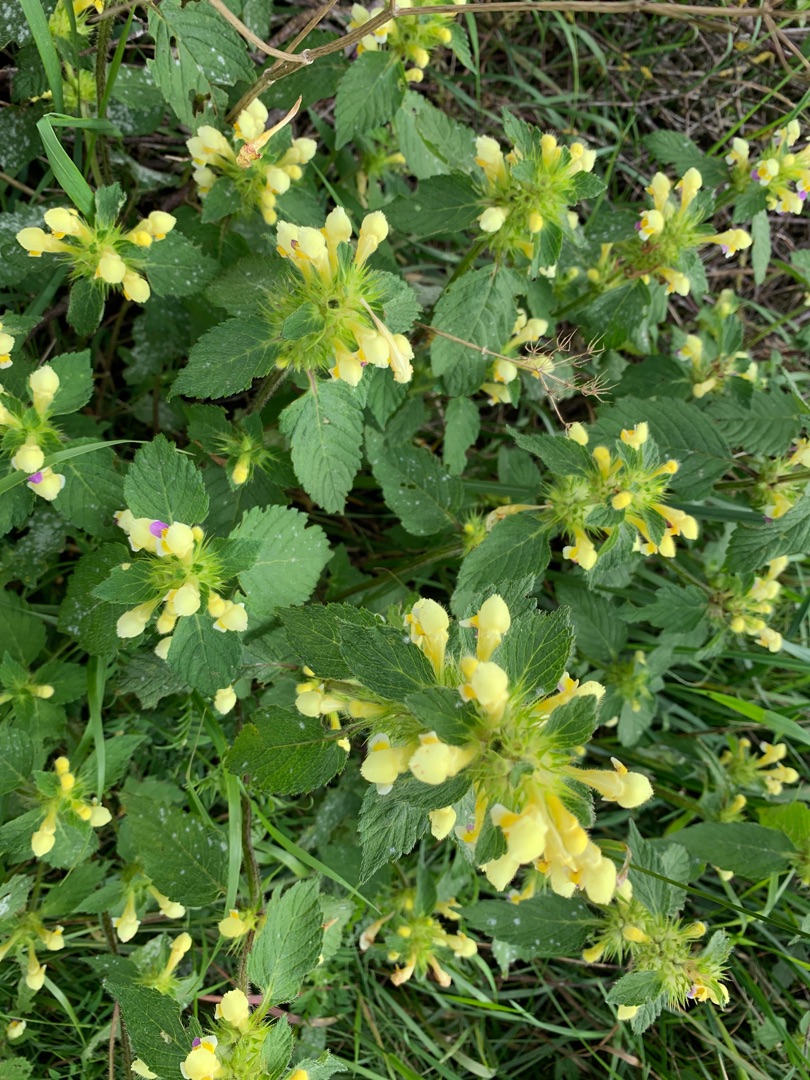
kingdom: Plantae
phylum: Tracheophyta
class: Magnoliopsida
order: Lamiales
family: Lamiaceae
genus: Galeopsis
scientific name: Galeopsis speciosa
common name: Hamp-hanekro
